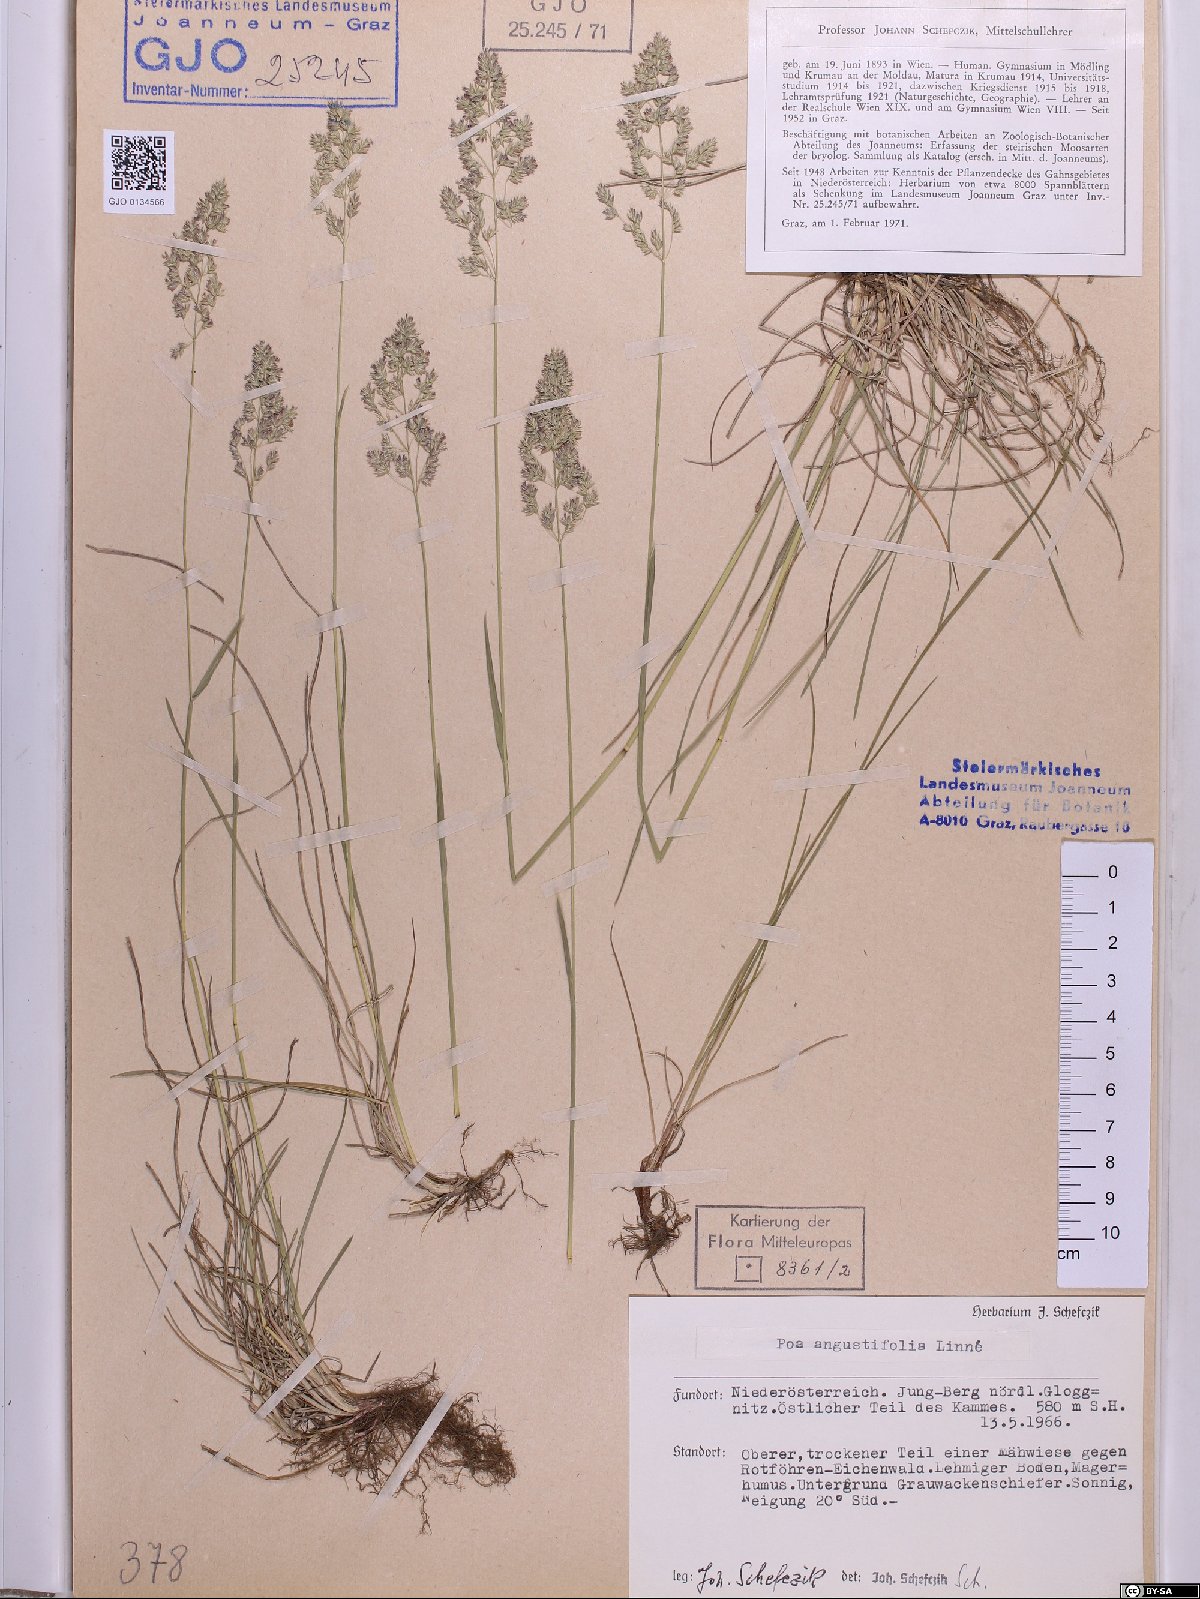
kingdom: Plantae
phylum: Tracheophyta
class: Liliopsida
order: Poales
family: Poaceae
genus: Poa
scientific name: Poa angustifolia
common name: Narrow-leaved meadow-grass
